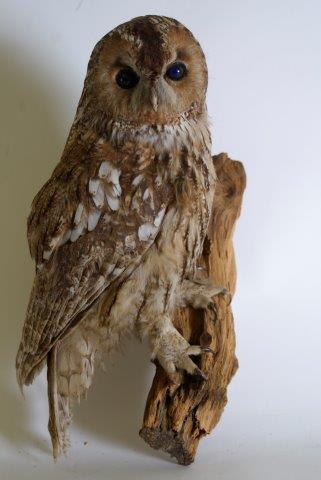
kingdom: Animalia
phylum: Chordata
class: Aves
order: Strigiformes
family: Strigidae
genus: Strix
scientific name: Strix aluco
